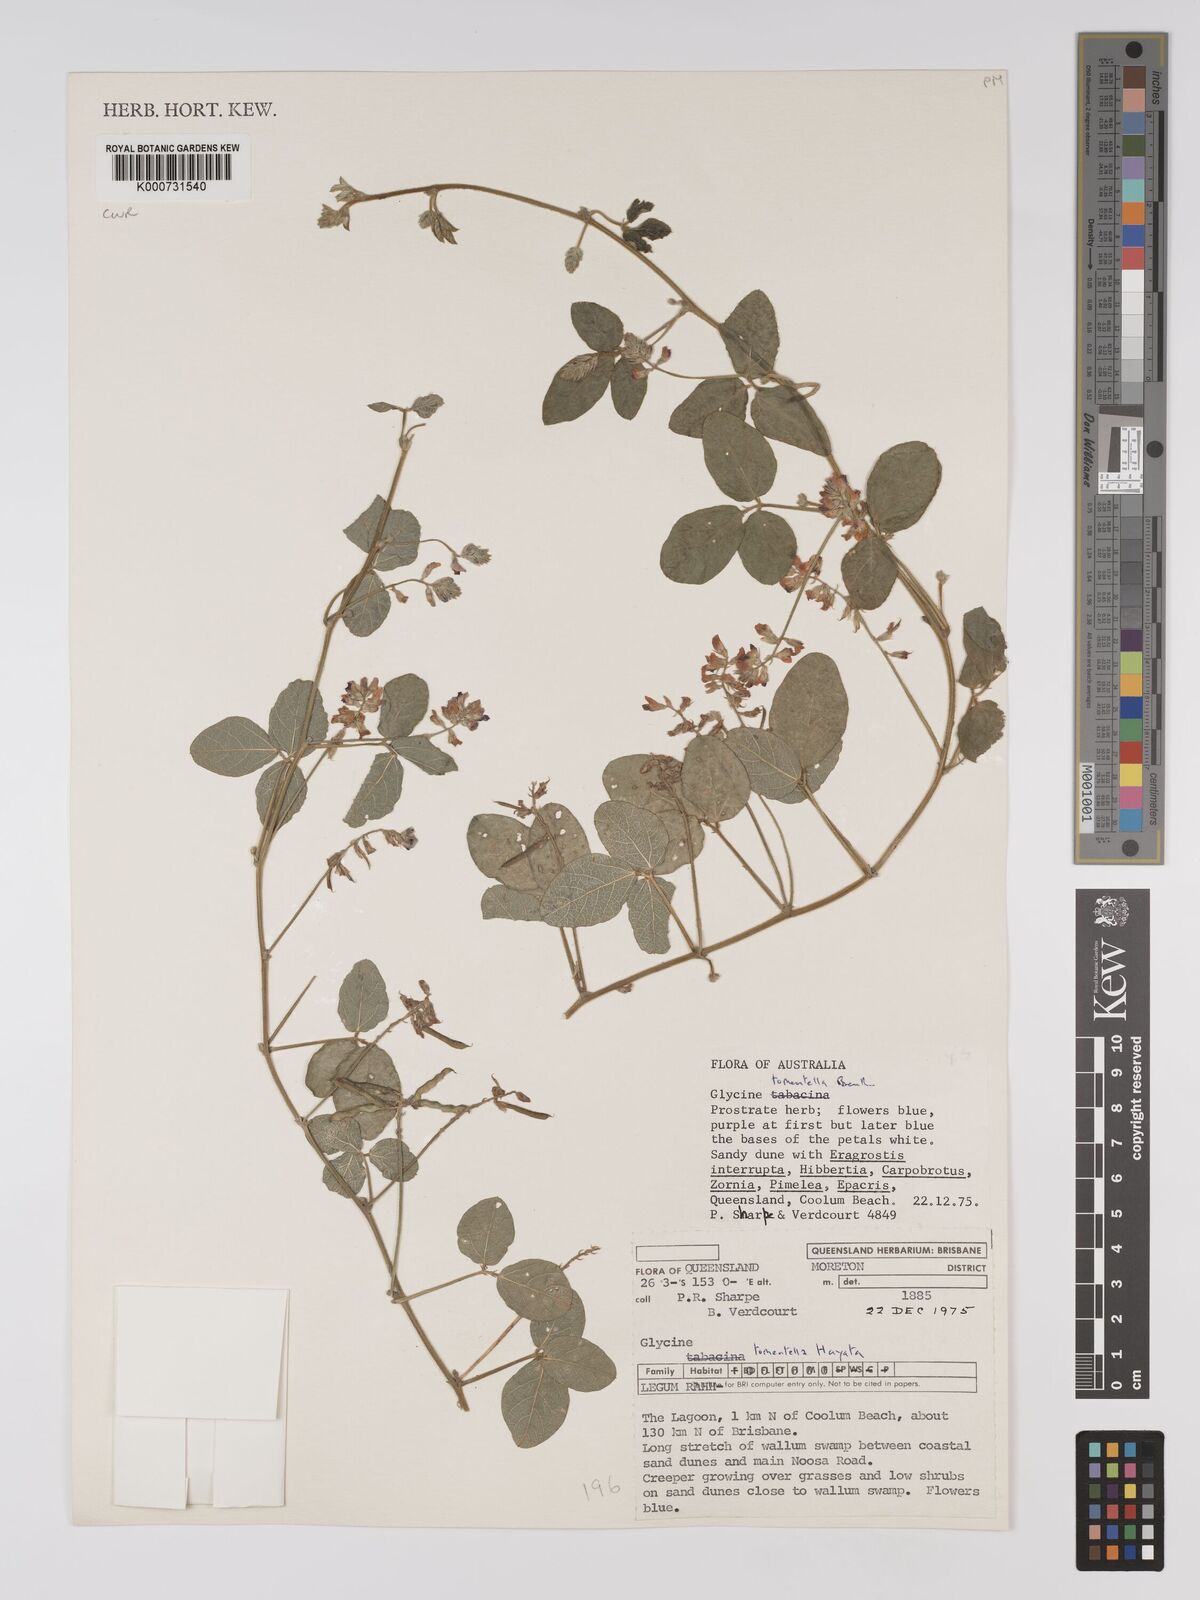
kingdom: Plantae
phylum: Tracheophyta
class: Magnoliopsida
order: Fabales
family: Fabaceae
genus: Glycine
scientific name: Glycine tomentella
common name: Hairy glycine
